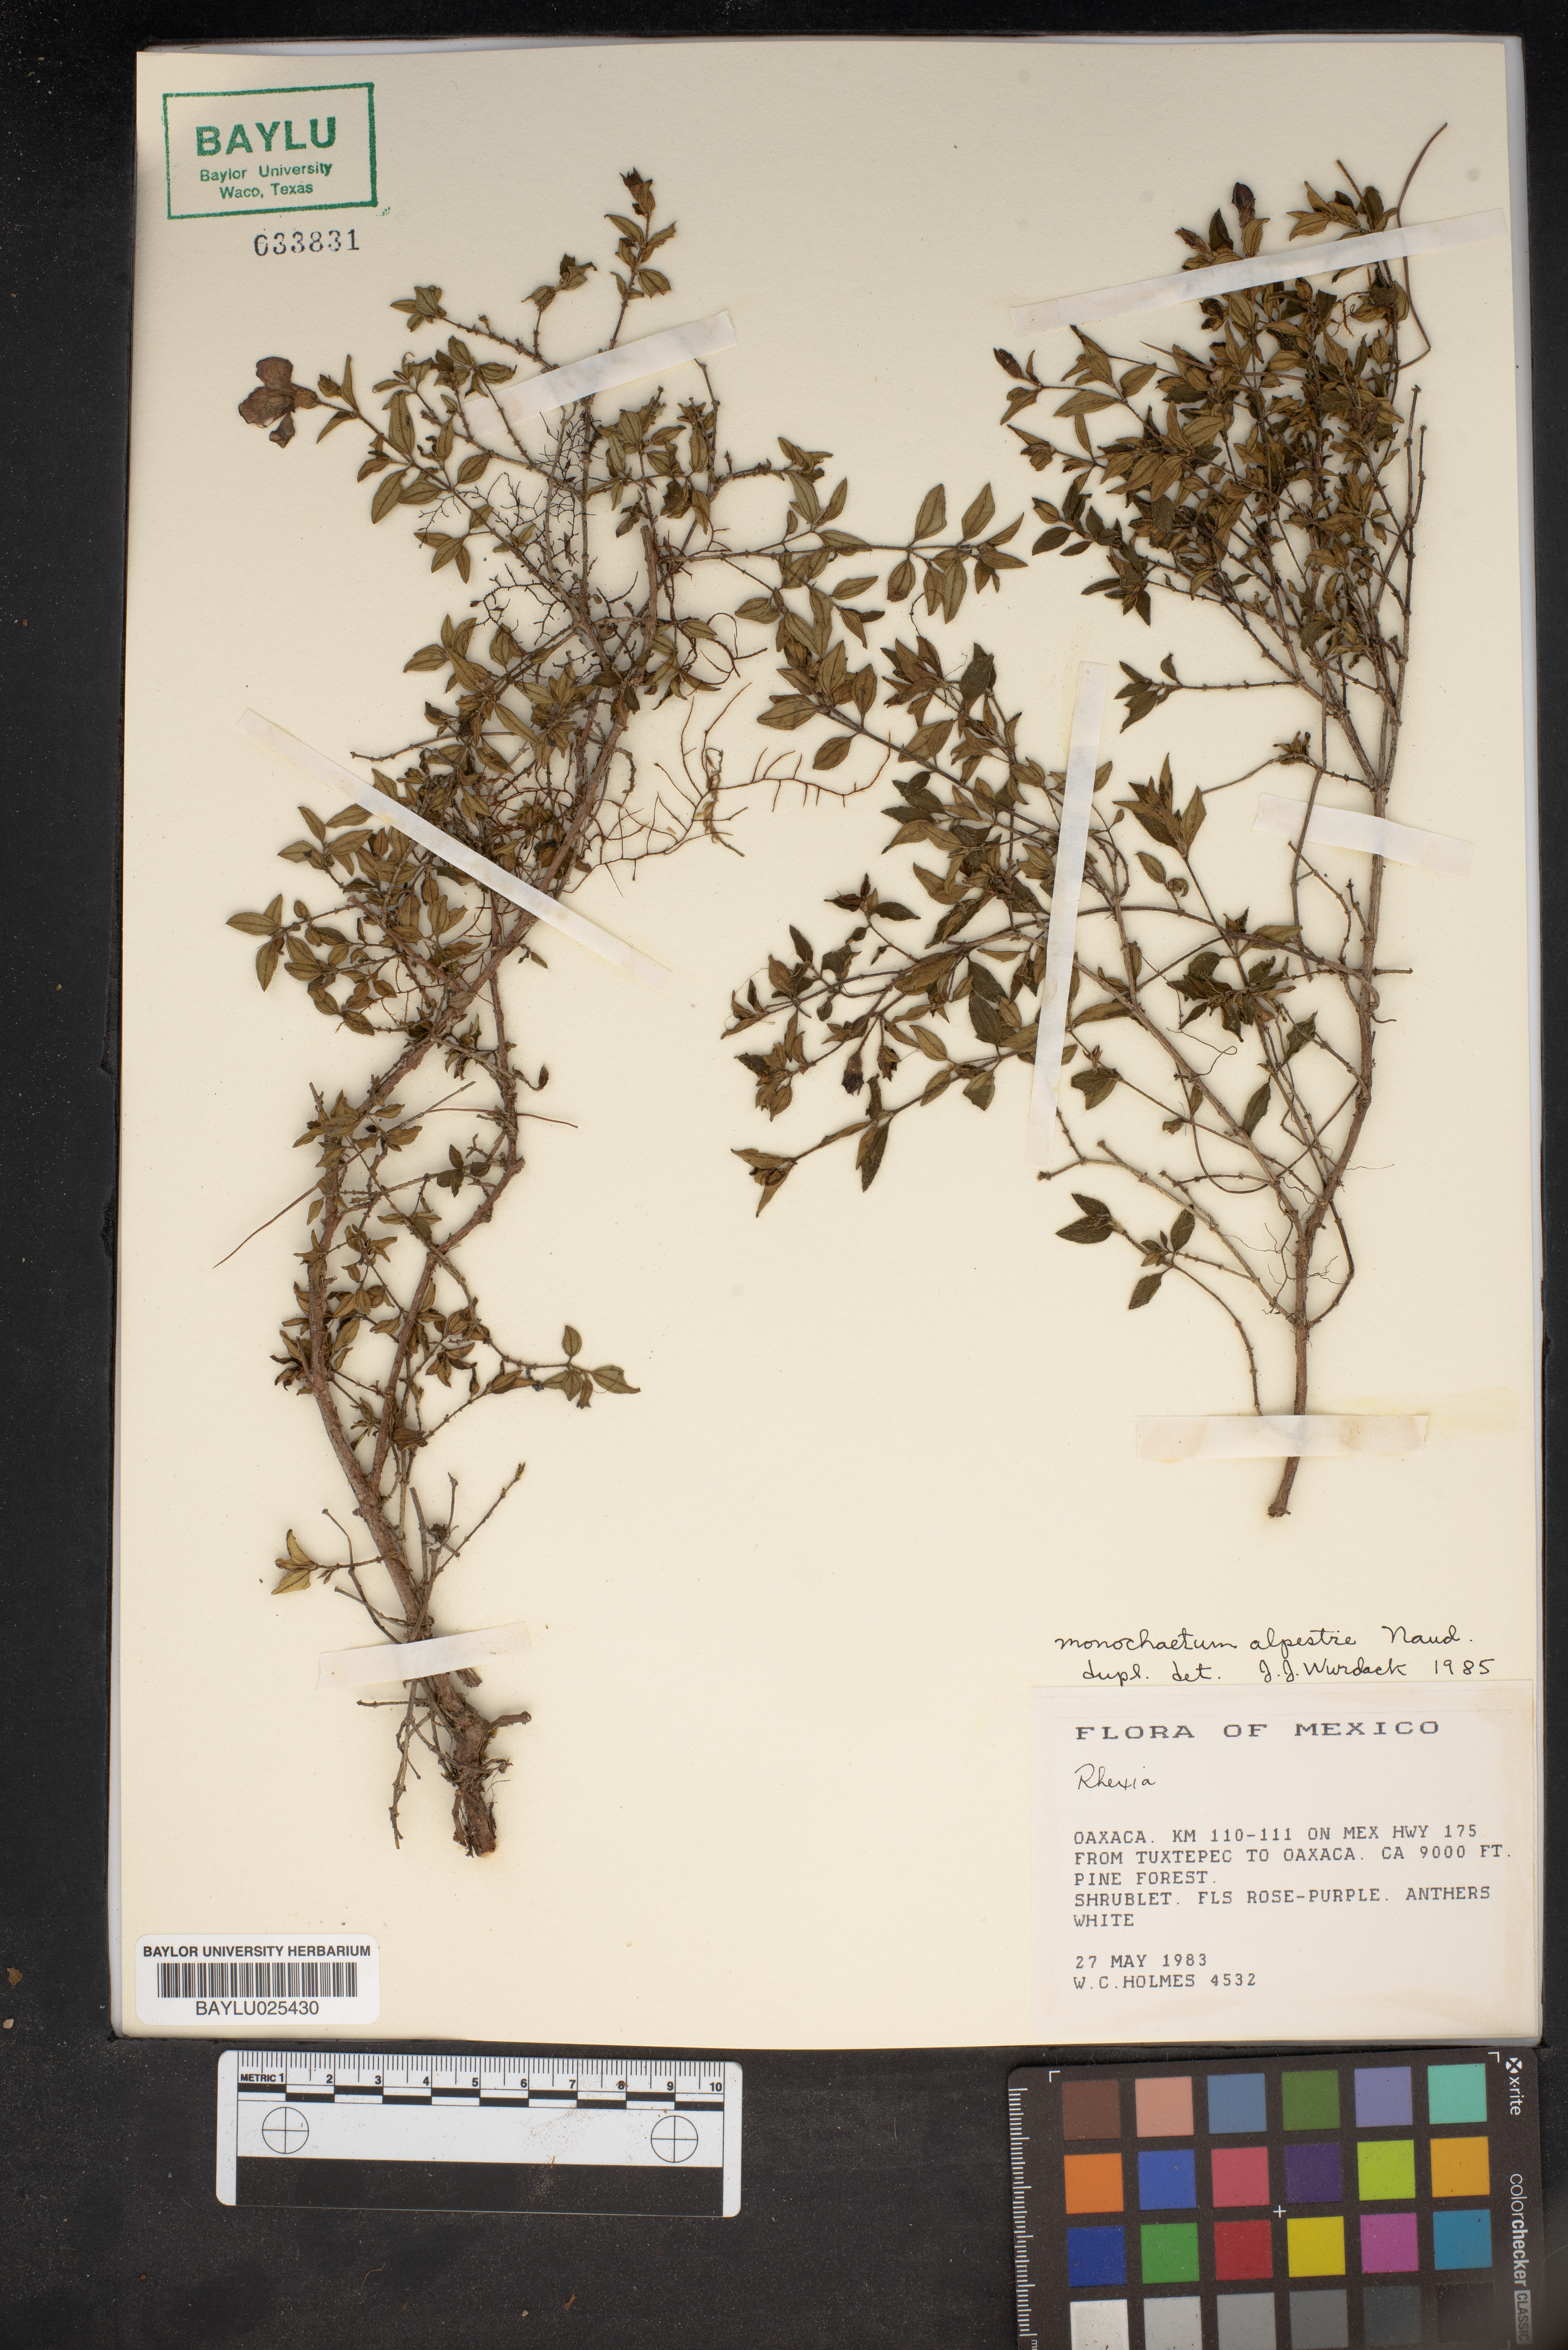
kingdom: Plantae
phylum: Tracheophyta
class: Magnoliopsida
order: Myrtales
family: Melastomataceae
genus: Monochaetum
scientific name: Monochaetum alpestre
